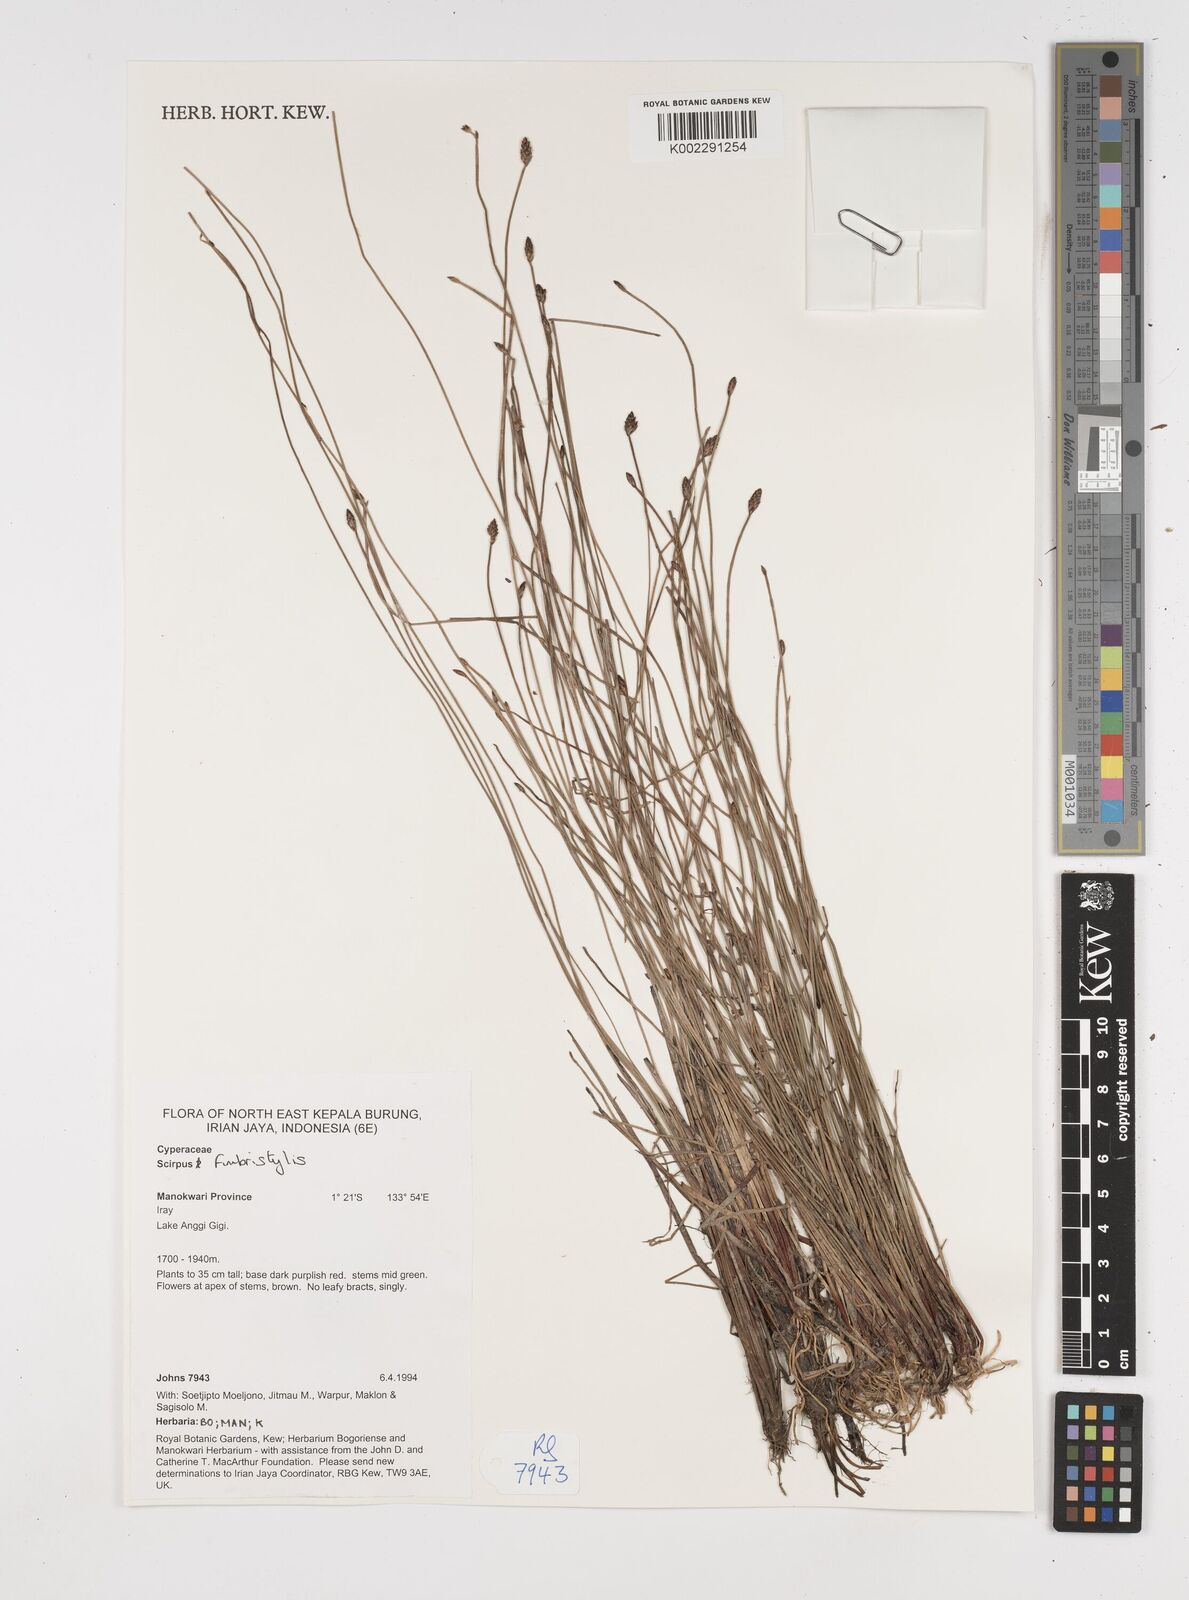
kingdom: Plantae
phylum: Tracheophyta
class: Liliopsida
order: Poales
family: Cyperaceae
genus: Fimbristylis
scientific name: Fimbristylis
